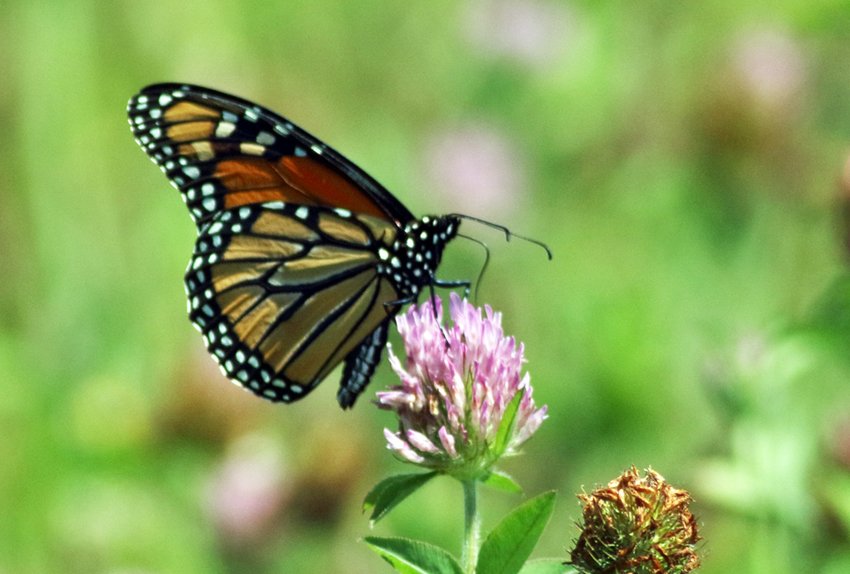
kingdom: Animalia
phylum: Arthropoda
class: Insecta
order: Lepidoptera
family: Nymphalidae
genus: Danaus
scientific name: Danaus plexippus
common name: Monarch
